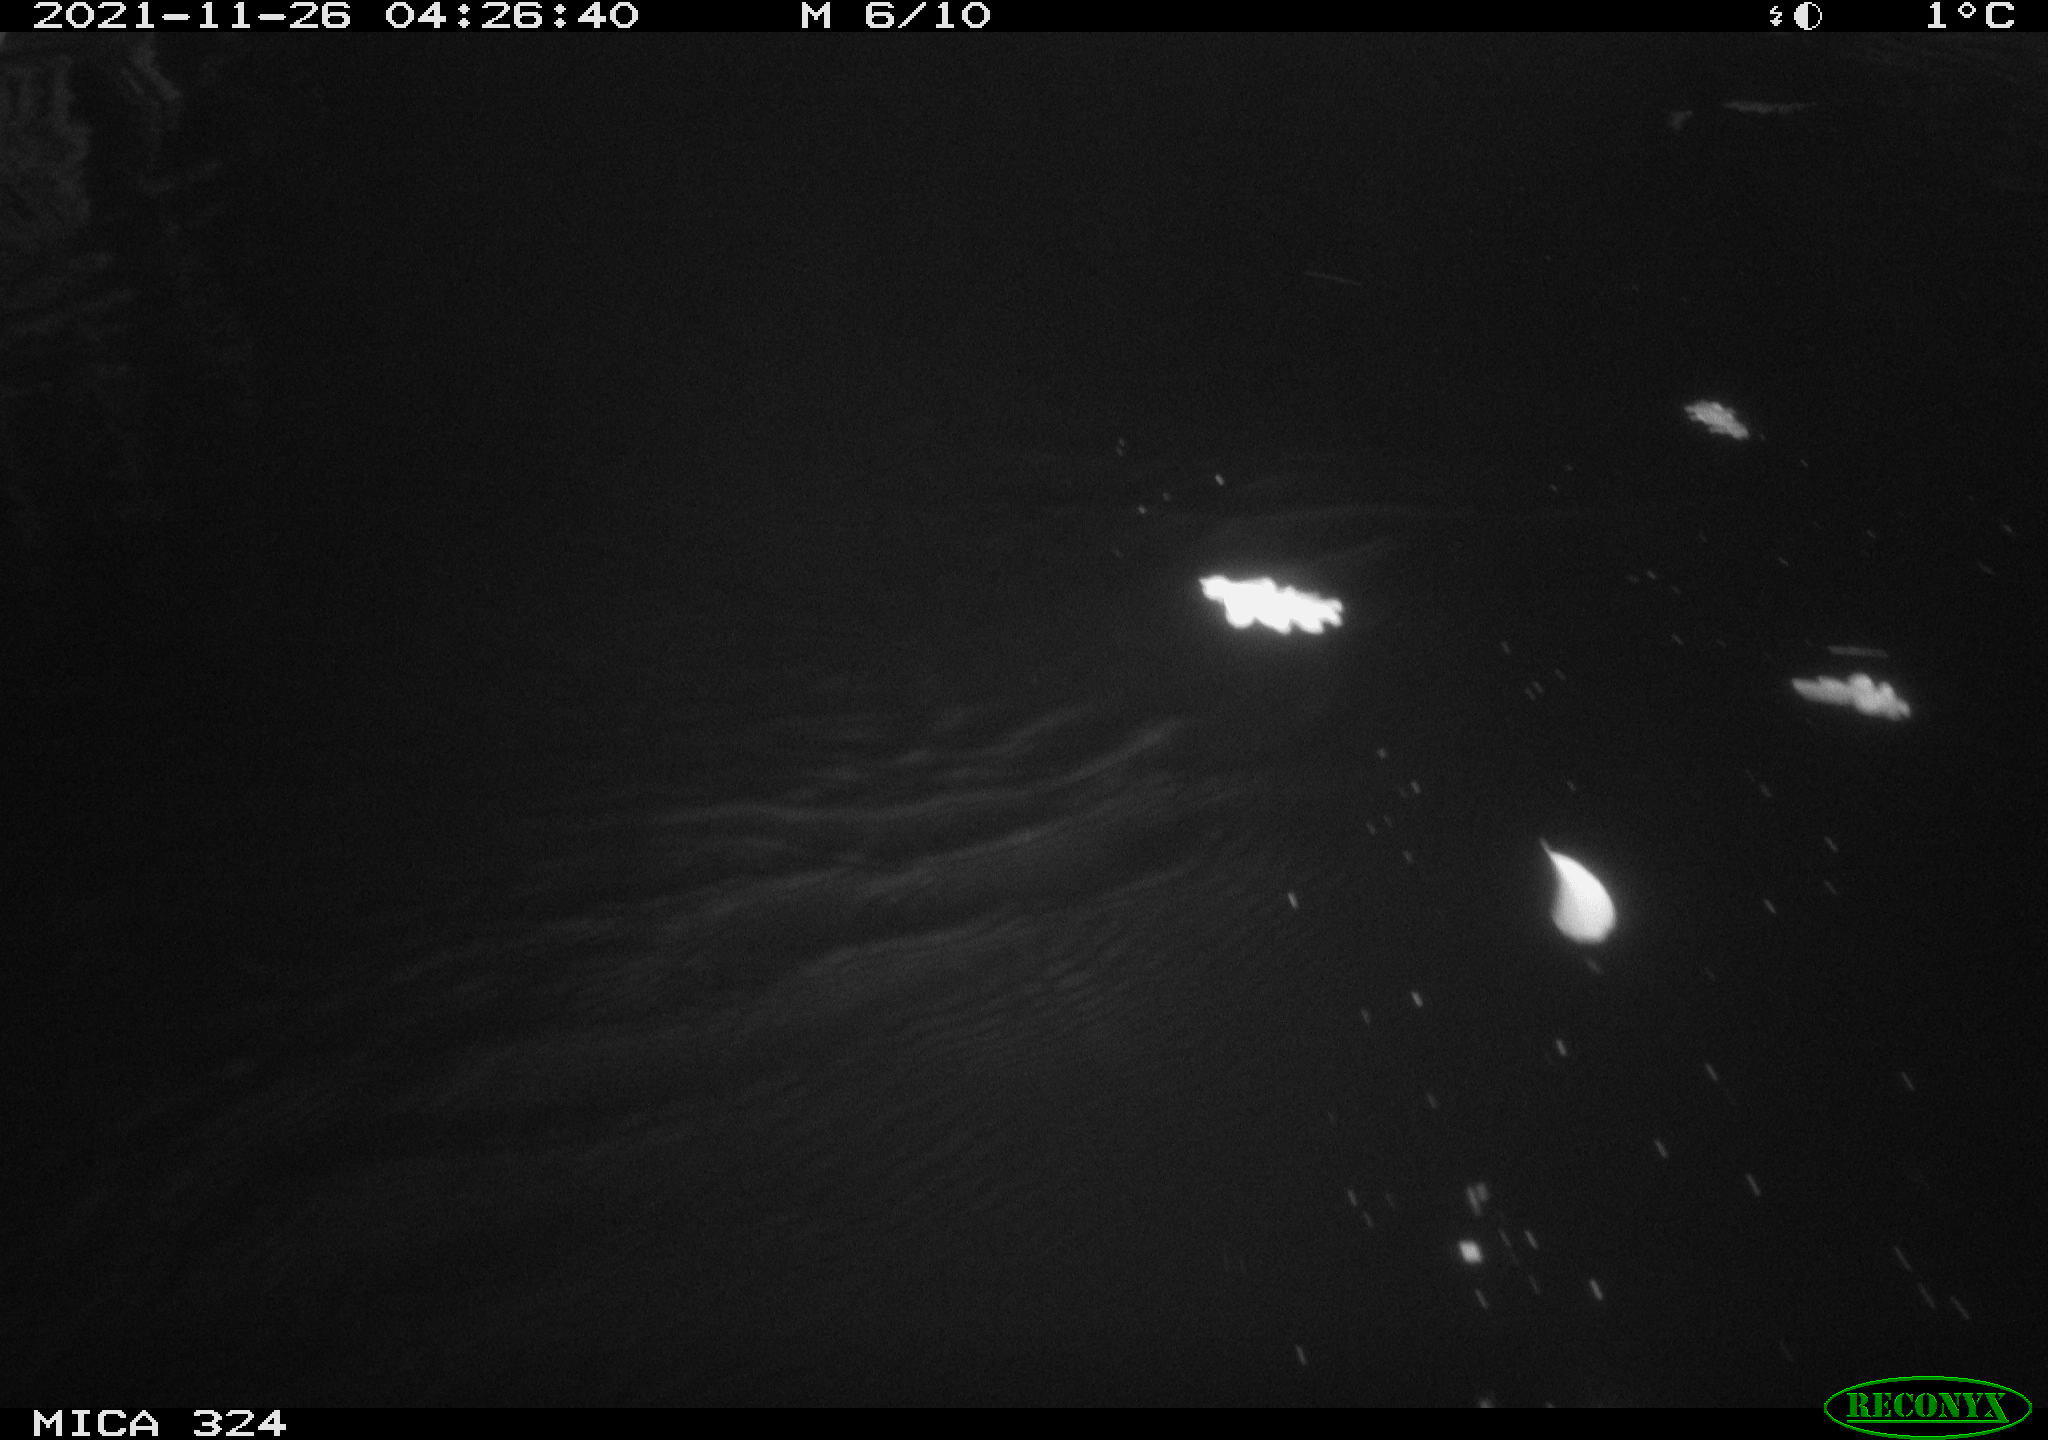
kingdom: Animalia
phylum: Chordata
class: Mammalia
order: Rodentia
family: Cricetidae
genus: Ondatra
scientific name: Ondatra zibethicus
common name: Muskrat
